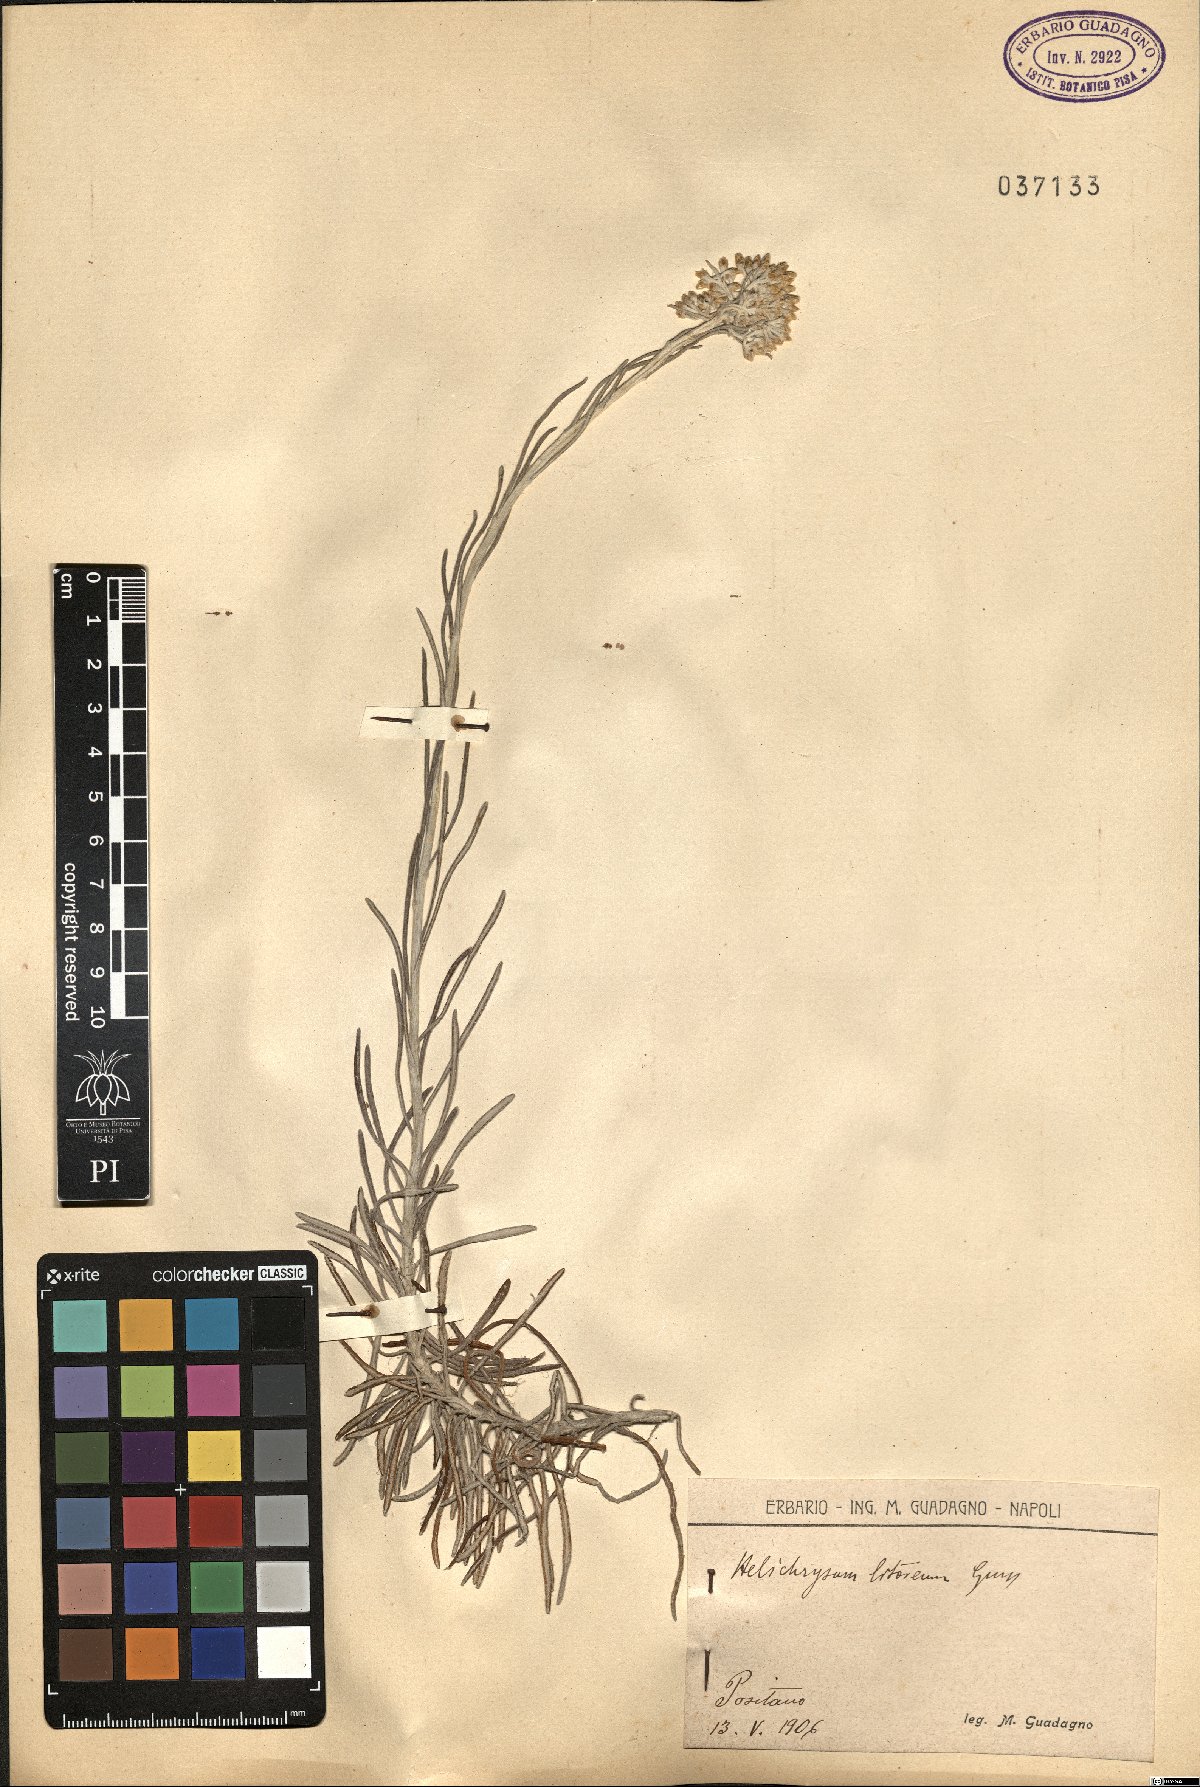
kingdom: Plantae
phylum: Tracheophyta
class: Magnoliopsida
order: Asterales
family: Asteraceae
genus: Helichrysum
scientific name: Helichrysum litoreum
